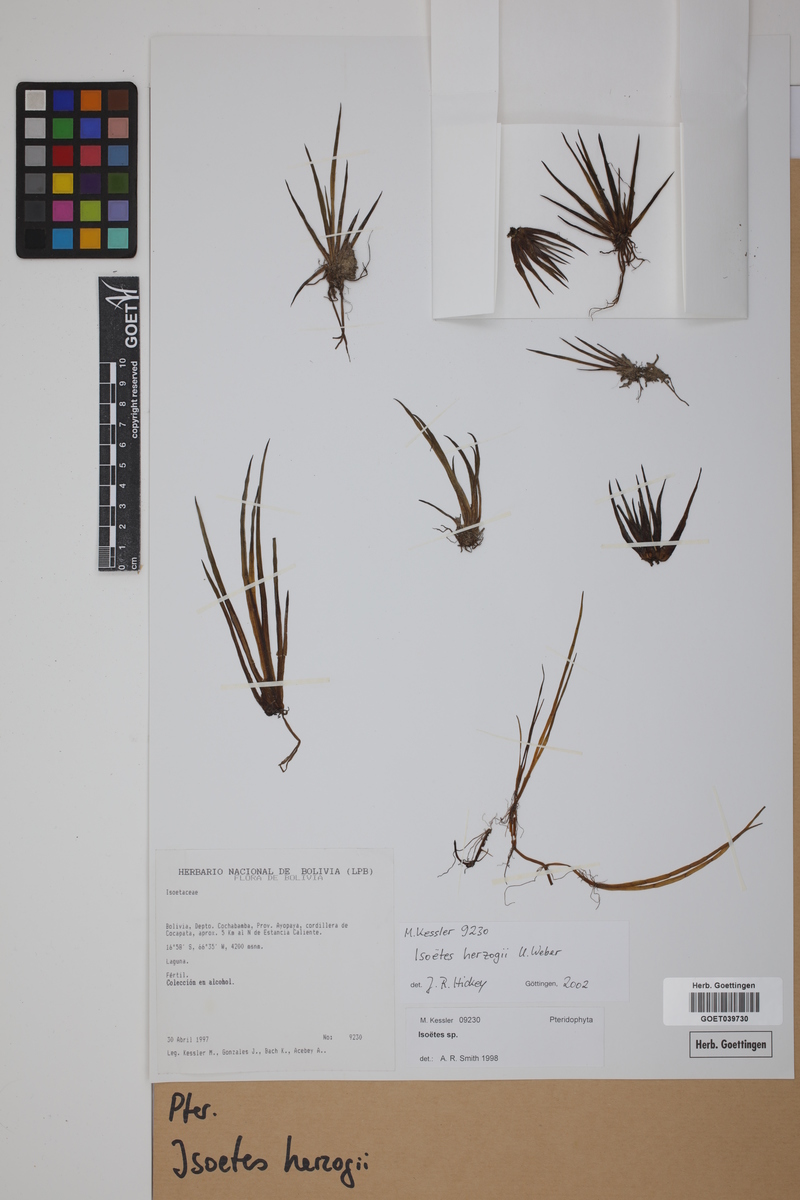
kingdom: Plantae
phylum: Tracheophyta
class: Lycopodiopsida
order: Isoetales
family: Isoetaceae
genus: Isoetes
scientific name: Isoetes herzogii
